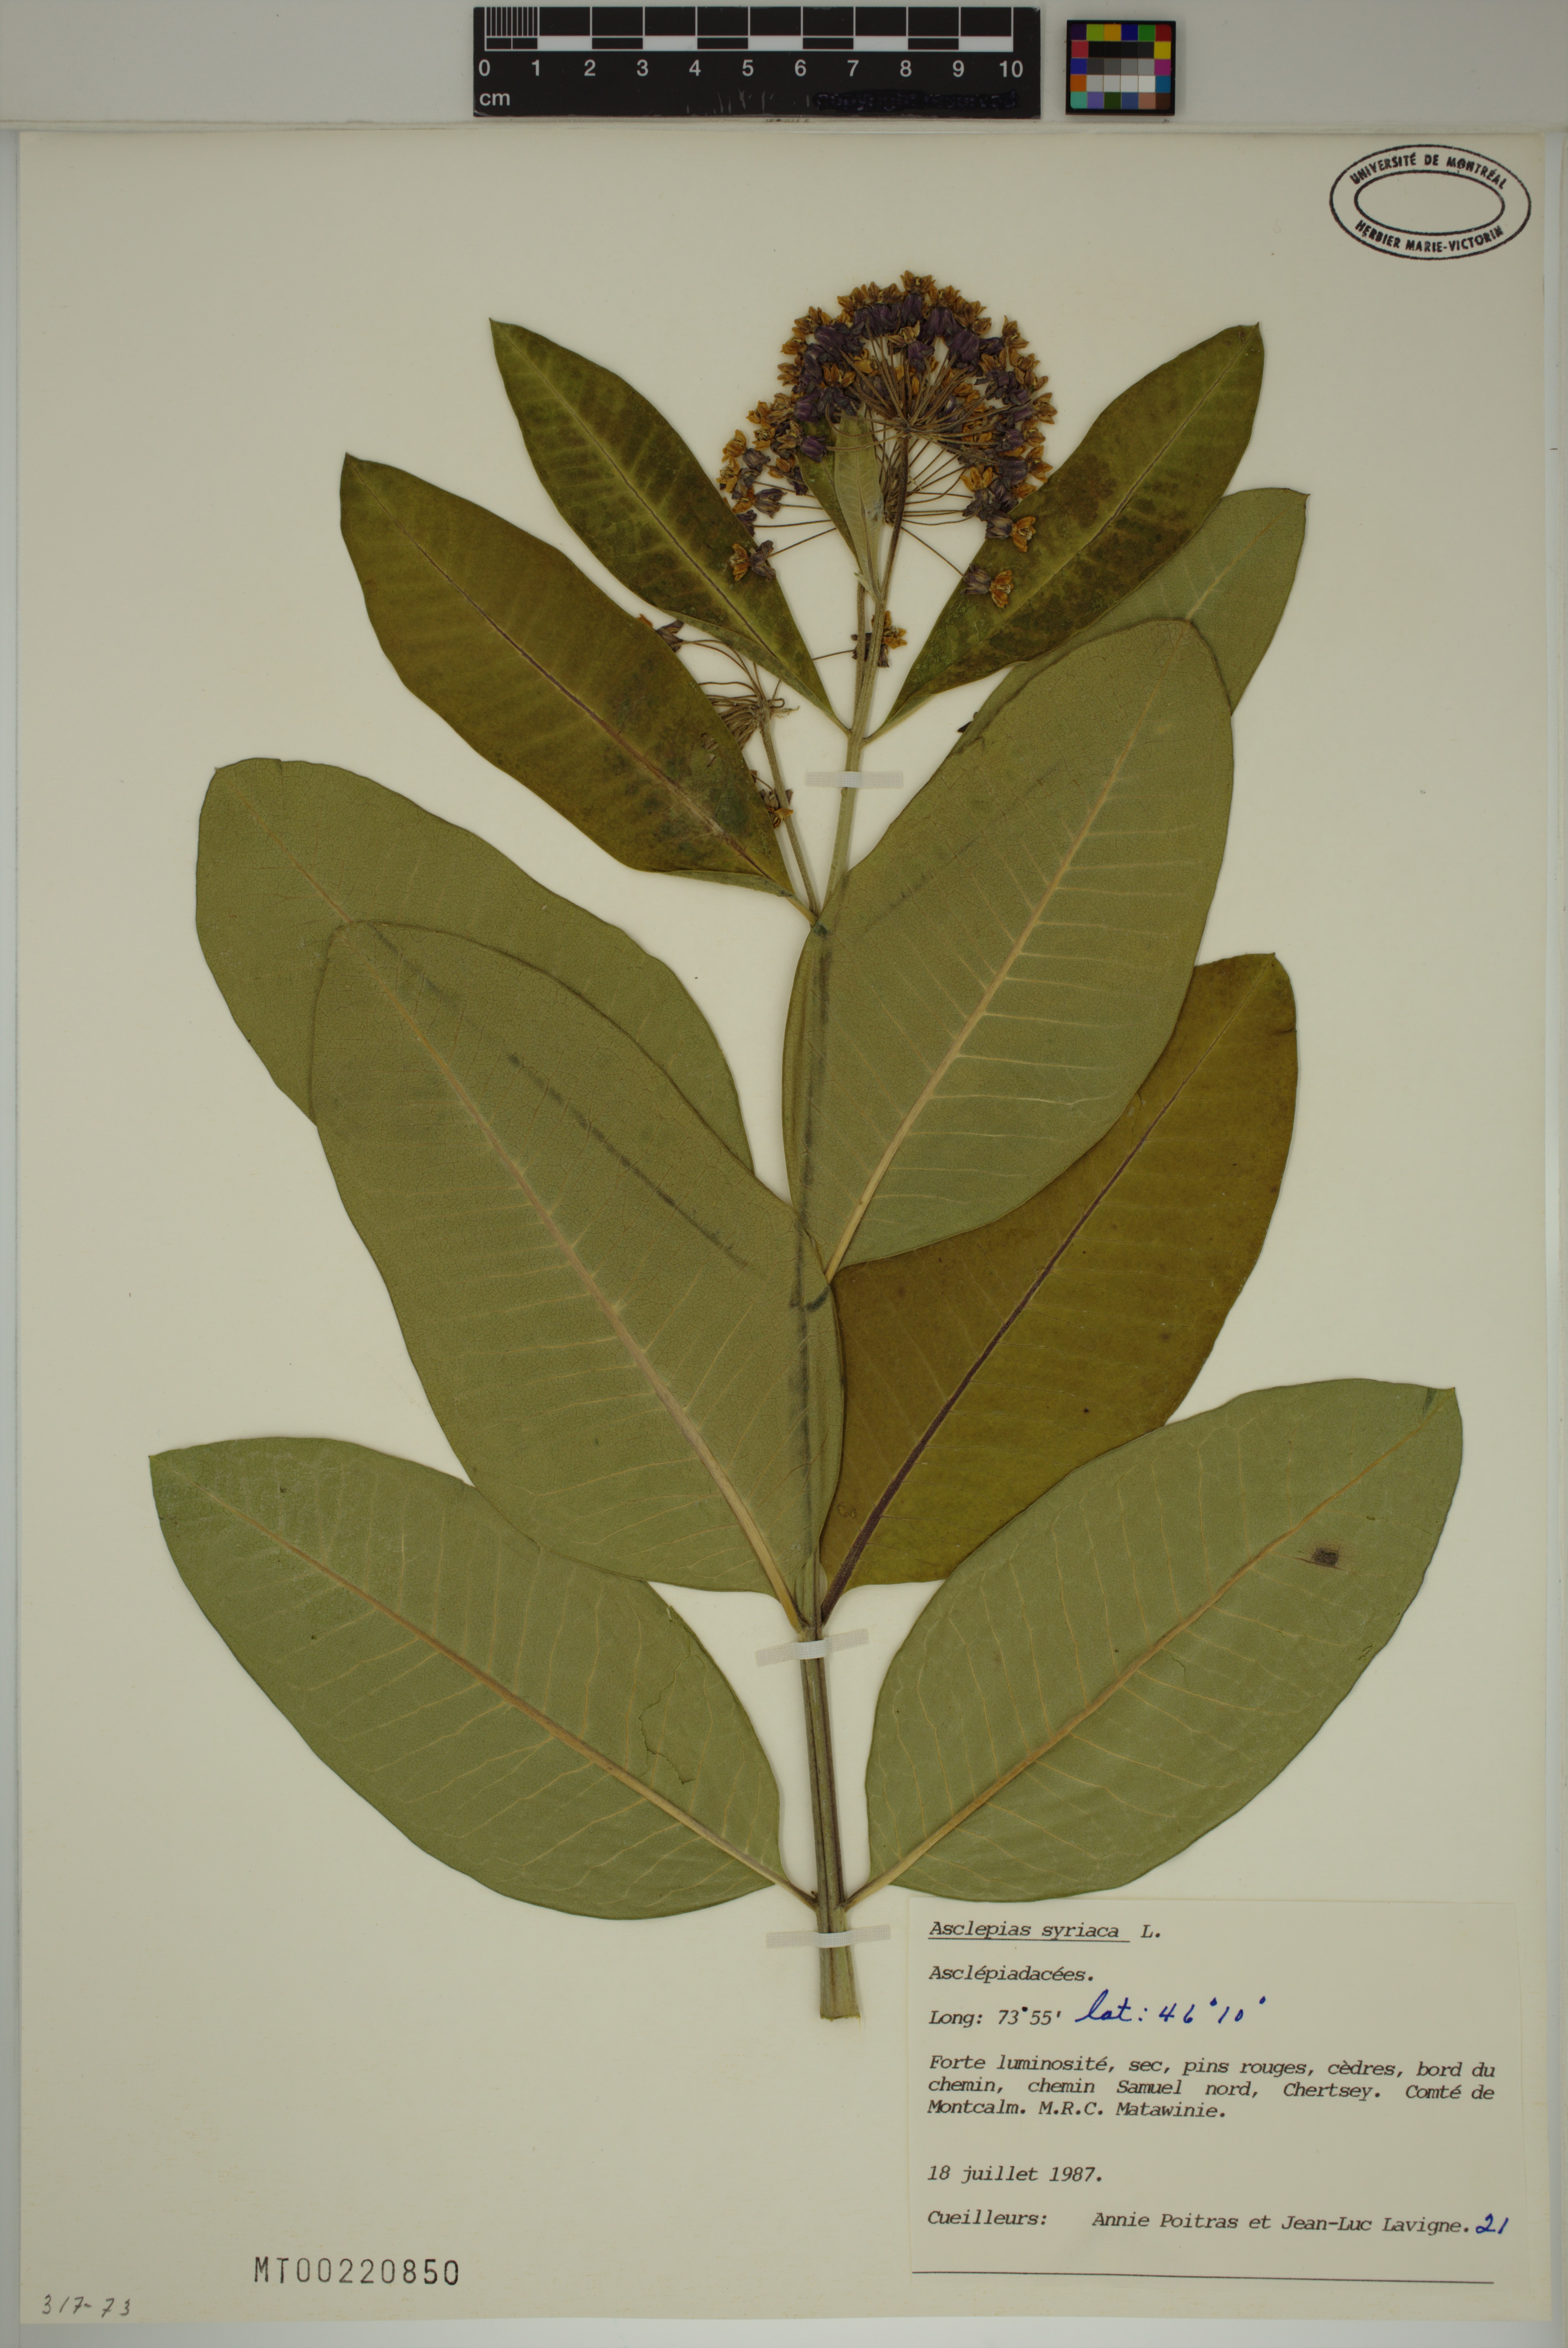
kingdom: Plantae
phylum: Tracheophyta
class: Magnoliopsida
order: Gentianales
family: Apocynaceae
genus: Asclepias
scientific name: Asclepias syriaca
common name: Common milkweed
